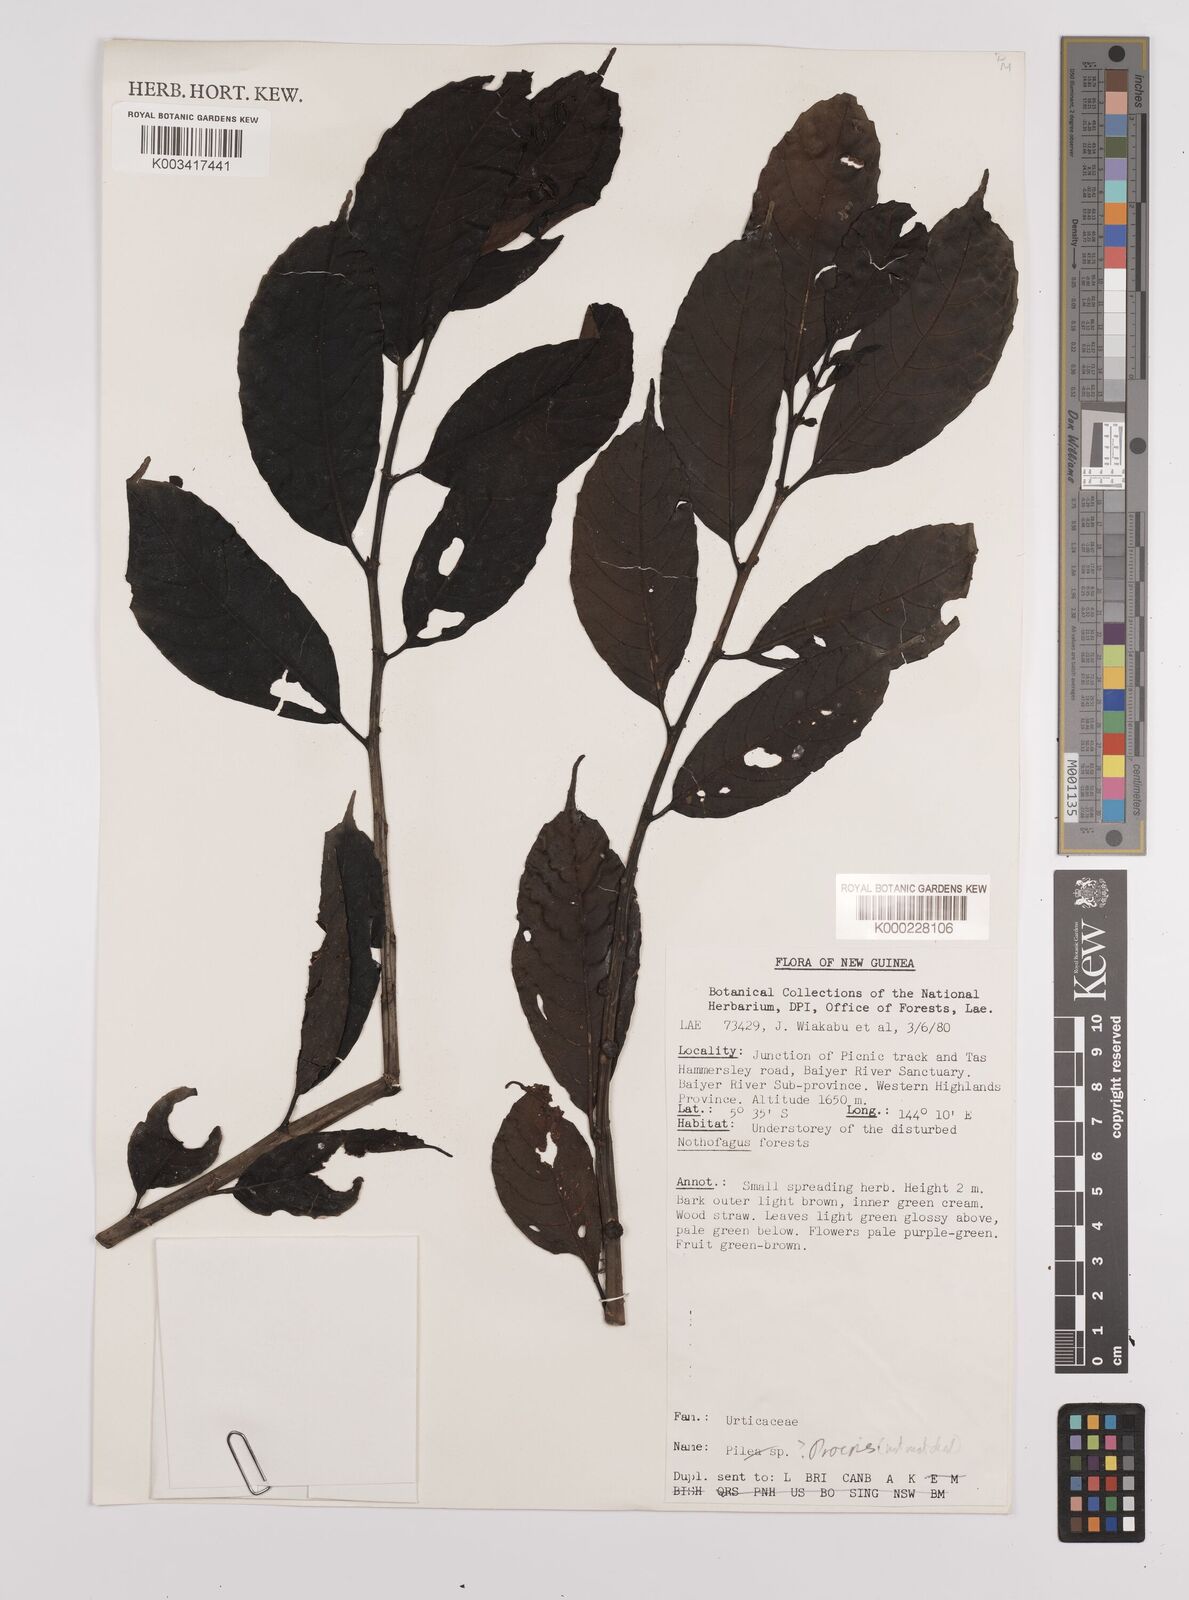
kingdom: Plantae
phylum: Tracheophyta
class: Magnoliopsida
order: Rosales
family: Urticaceae
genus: Procris
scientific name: Procris
